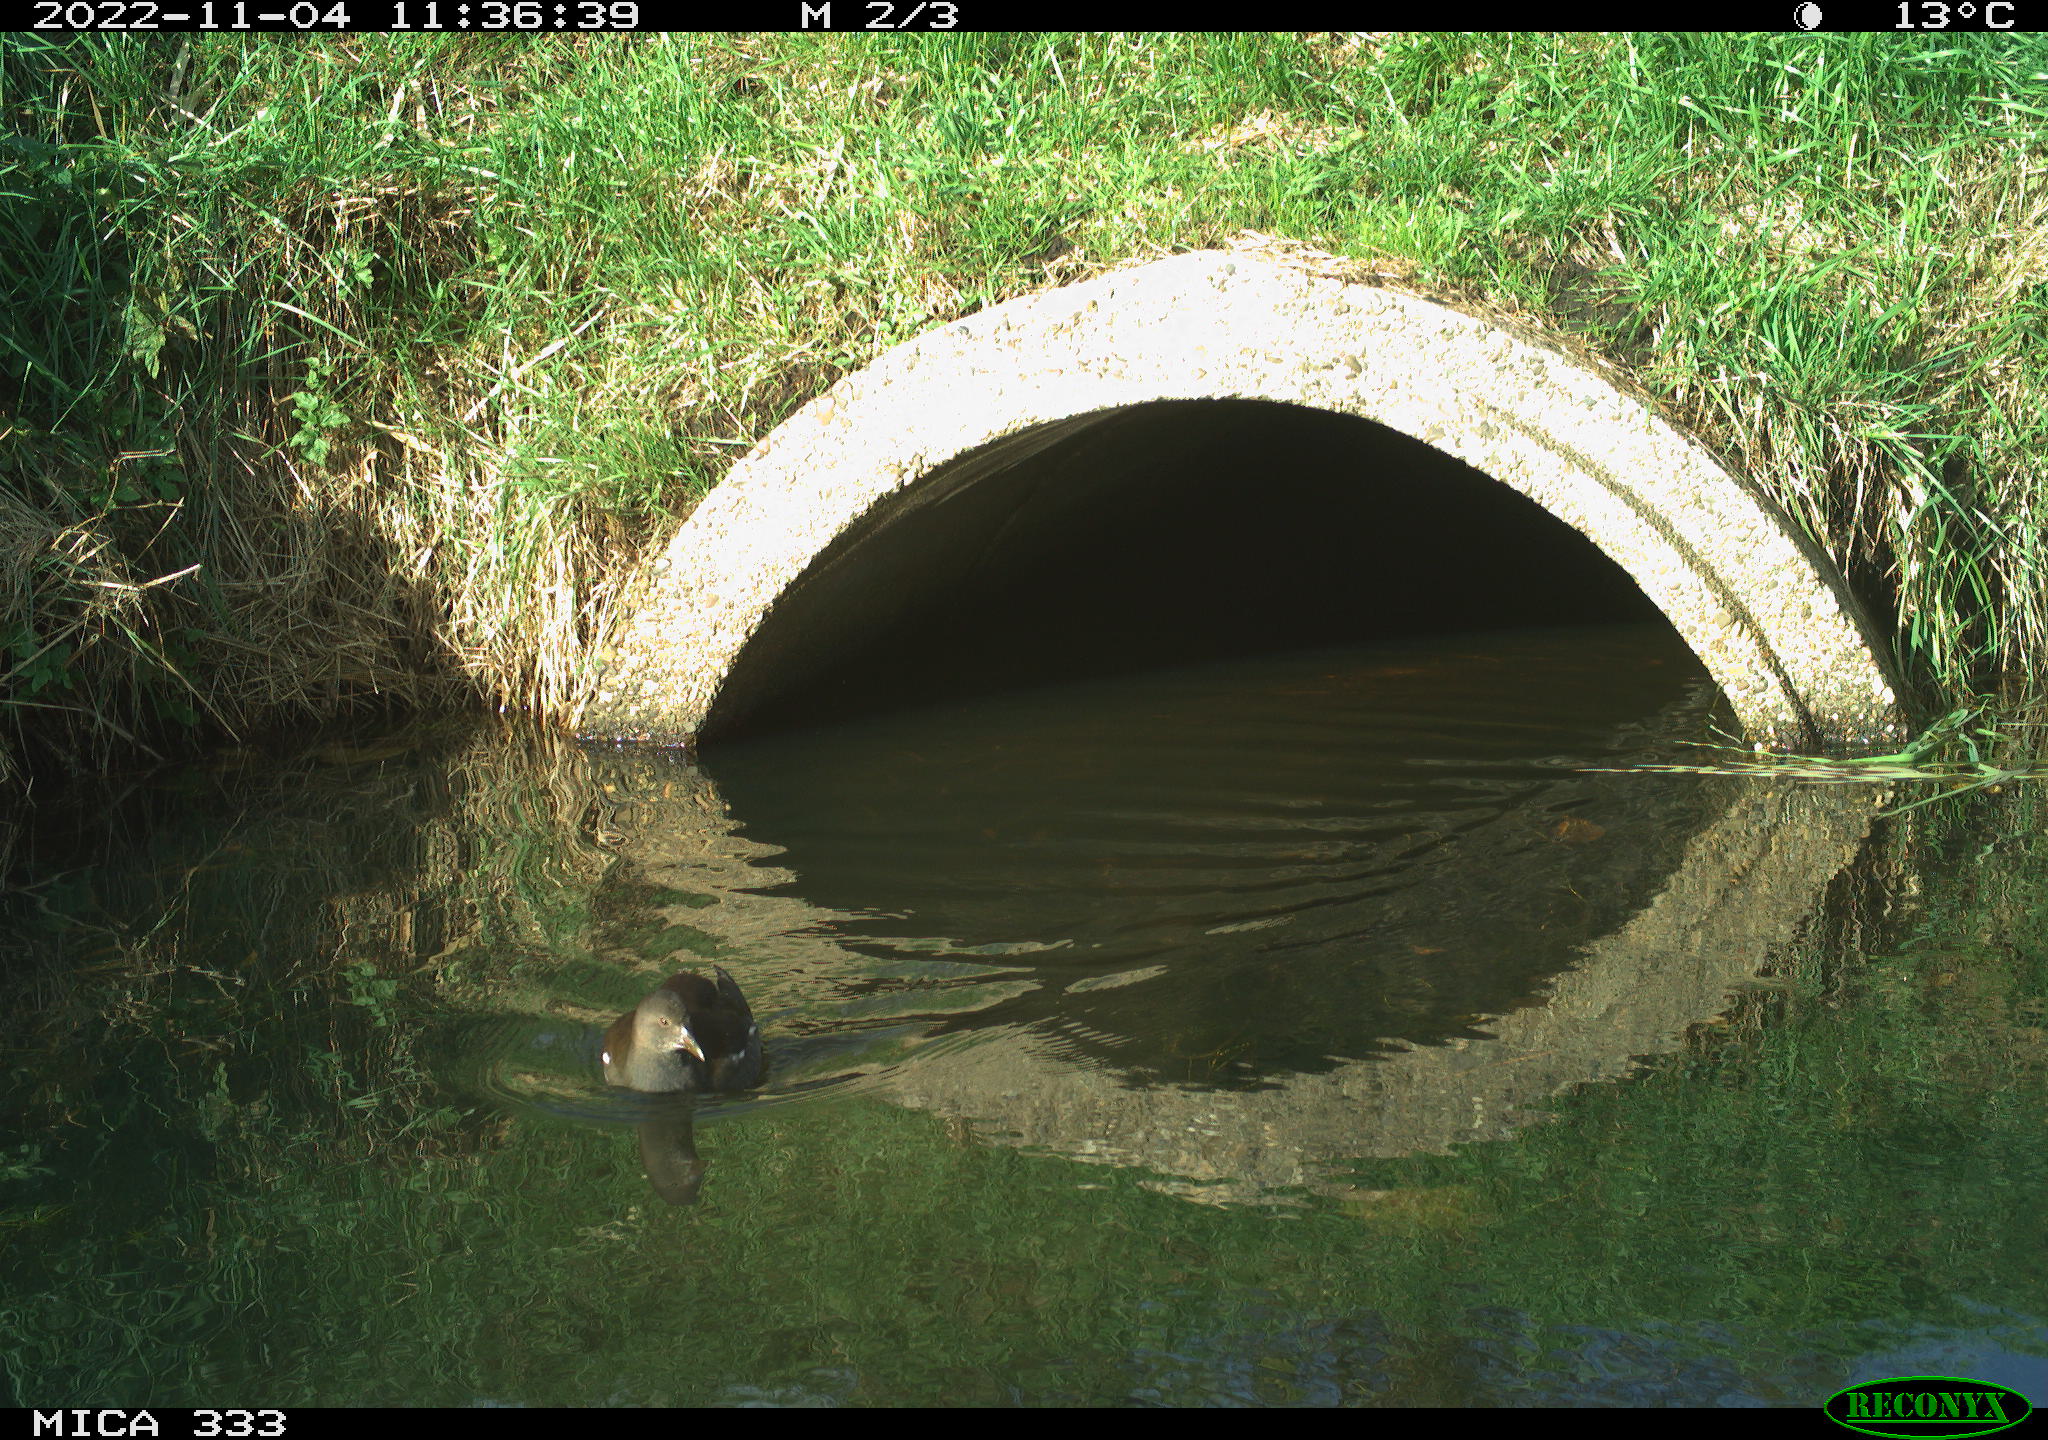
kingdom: Animalia
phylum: Chordata
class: Aves
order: Gruiformes
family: Rallidae
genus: Gallinula
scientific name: Gallinula chloropus
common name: Common moorhen
